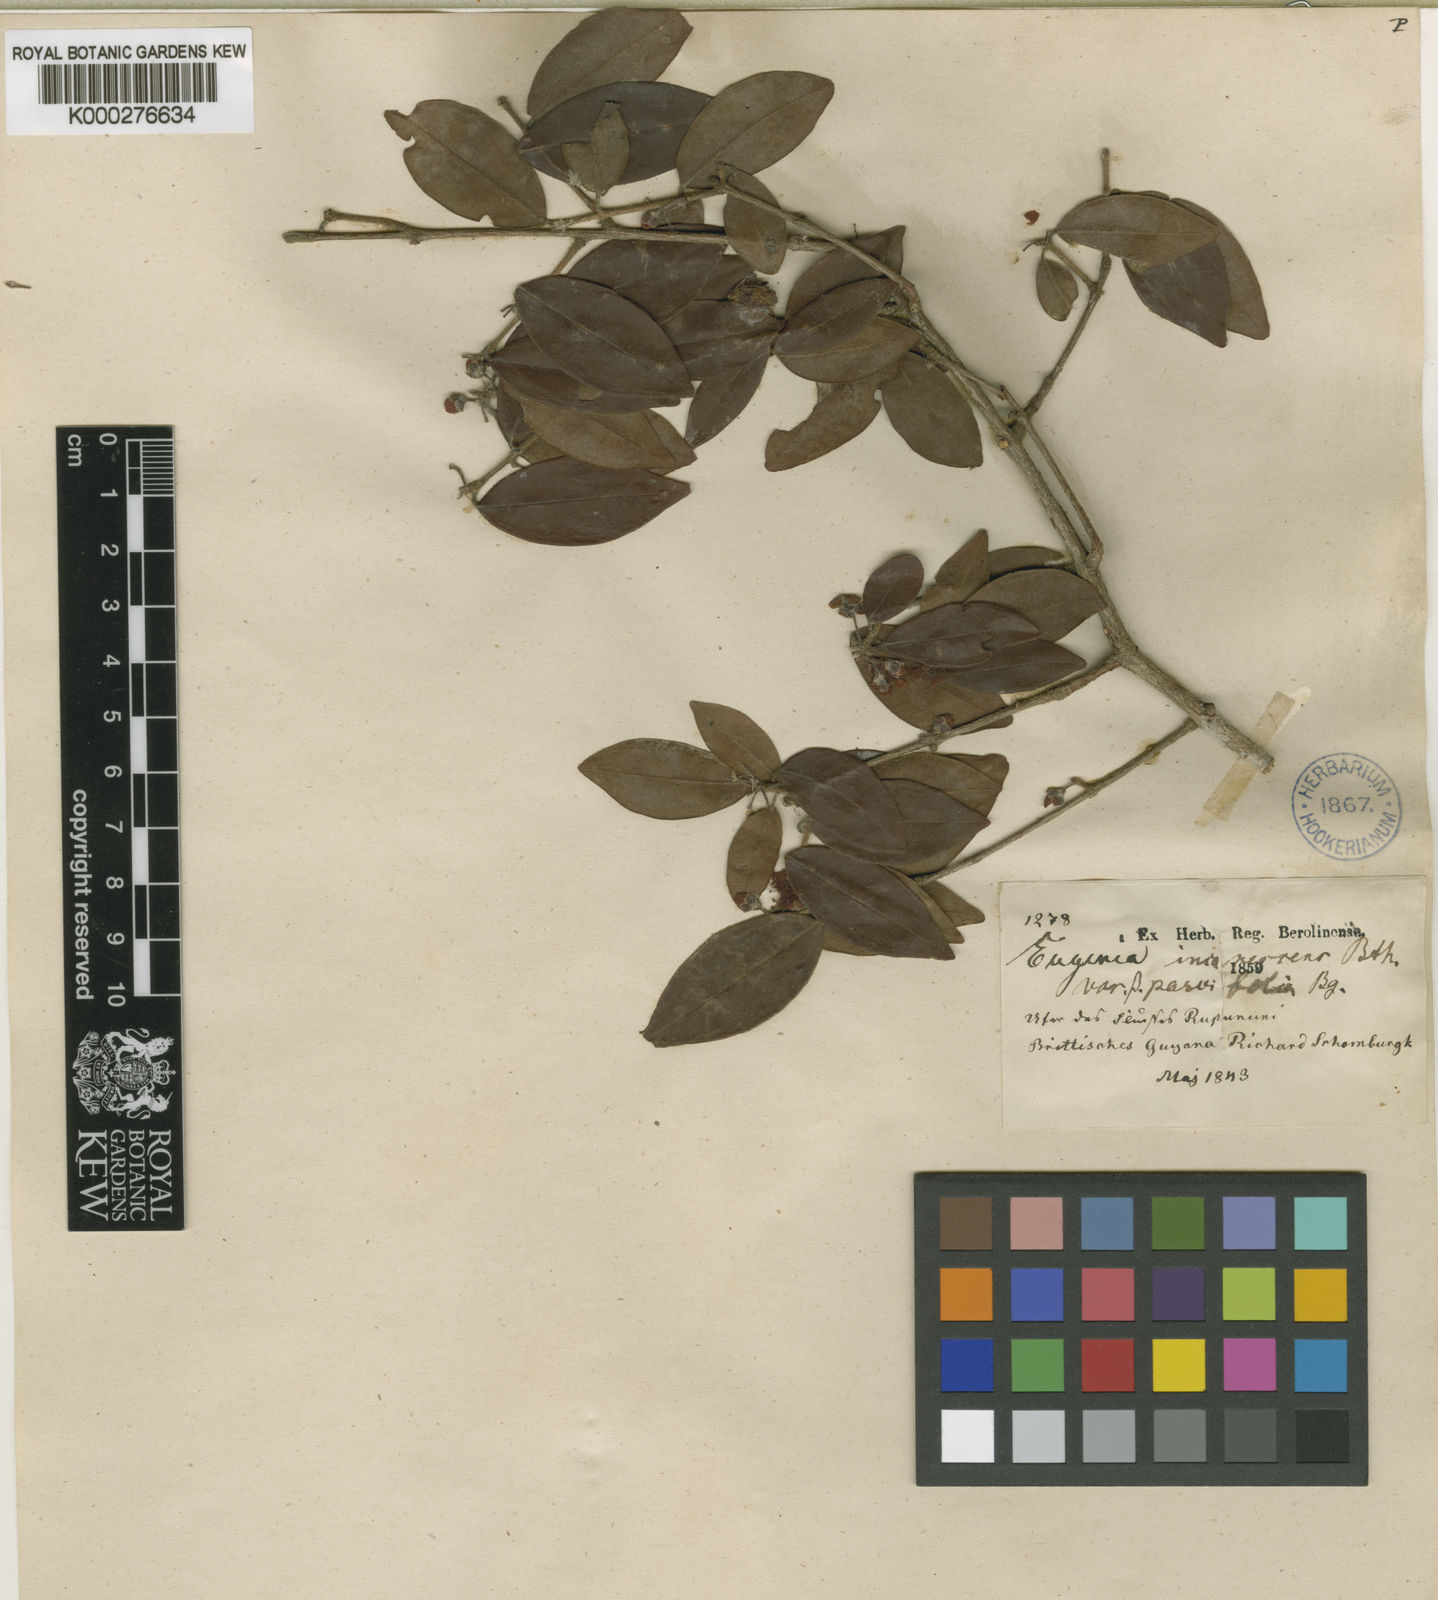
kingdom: Plantae
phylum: Tracheophyta
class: Magnoliopsida
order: Myrtales
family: Myrtaceae
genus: Eugenia
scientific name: Eugenia incanescens
